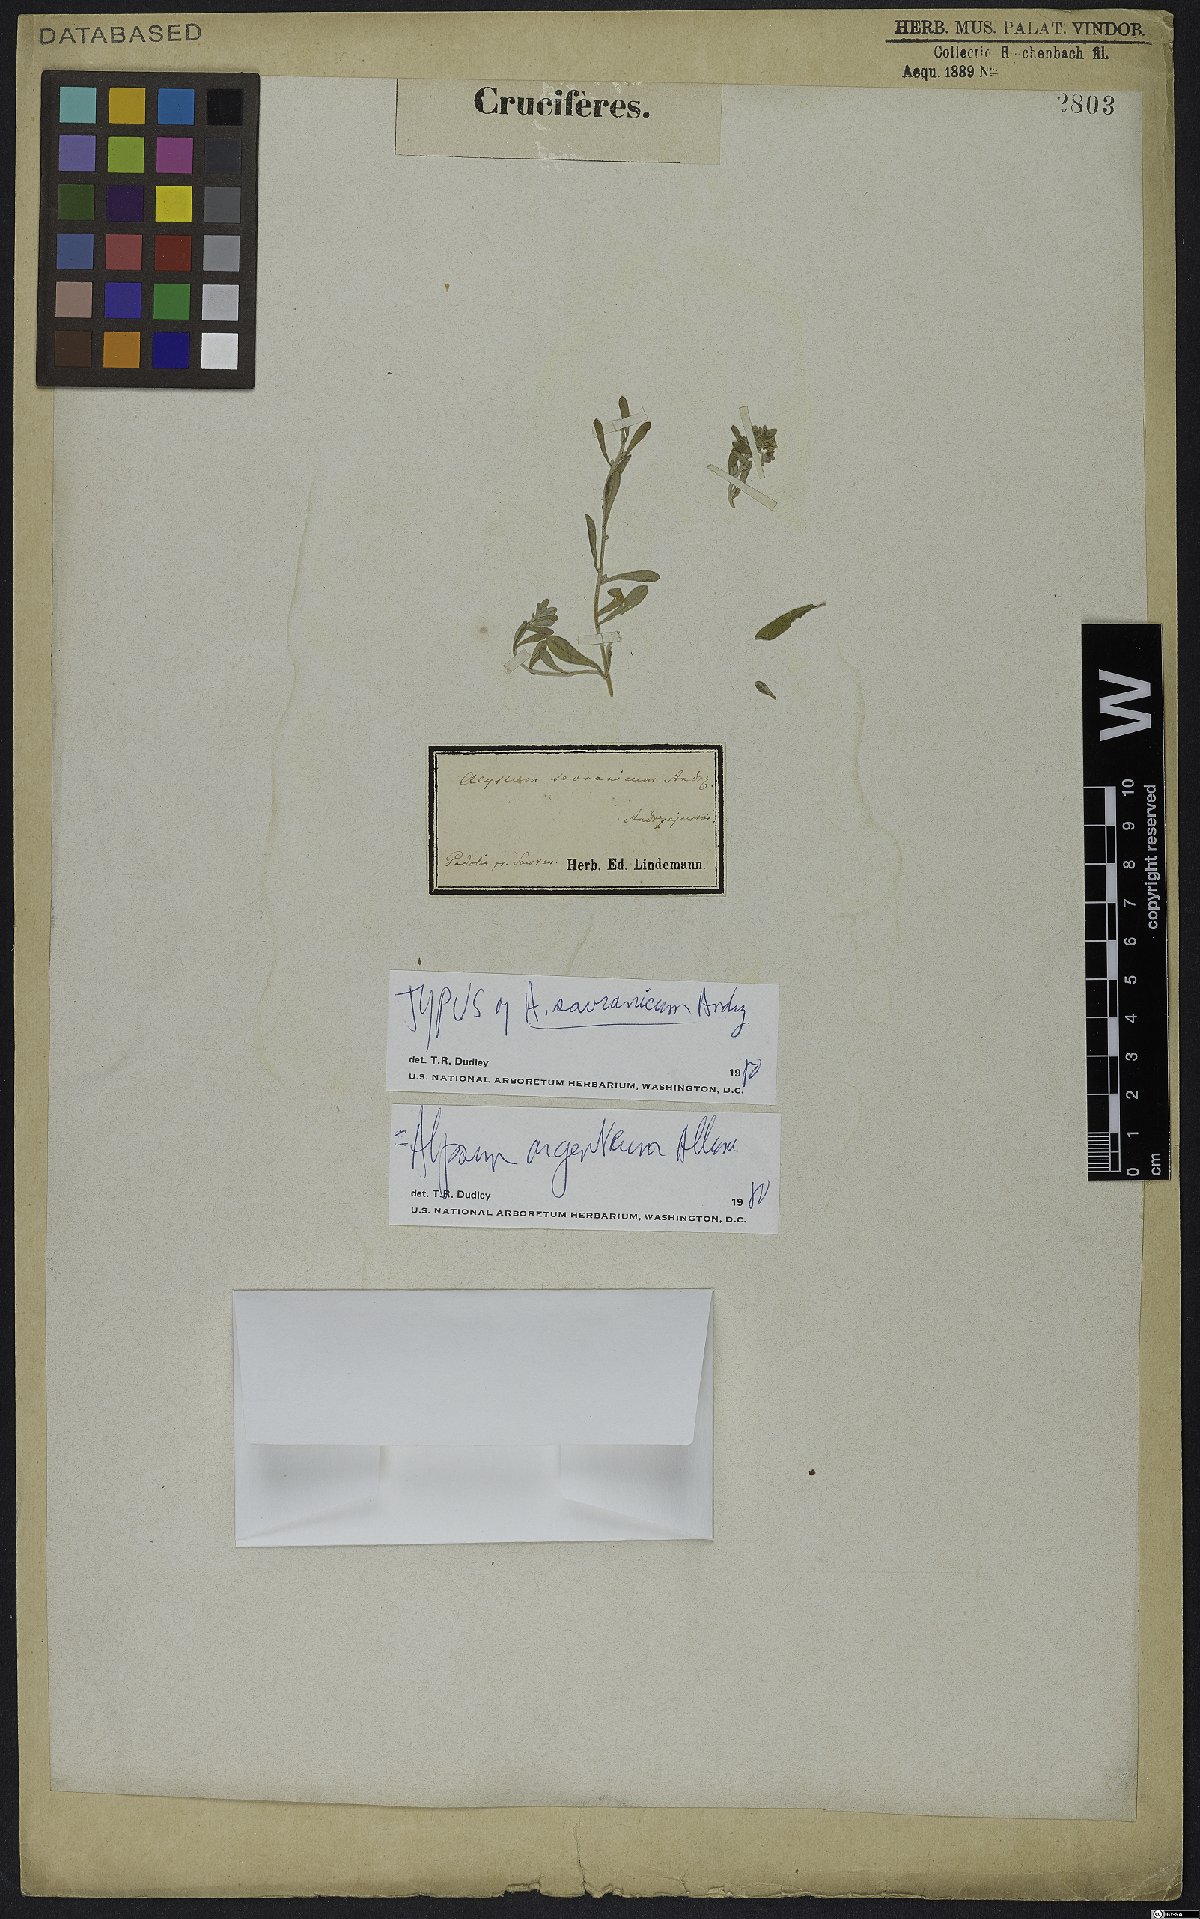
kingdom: Plantae
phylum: Tracheophyta
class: Magnoliopsida
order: Brassicales
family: Brassicaceae
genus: Odontarrhena
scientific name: Odontarrhena argentea
